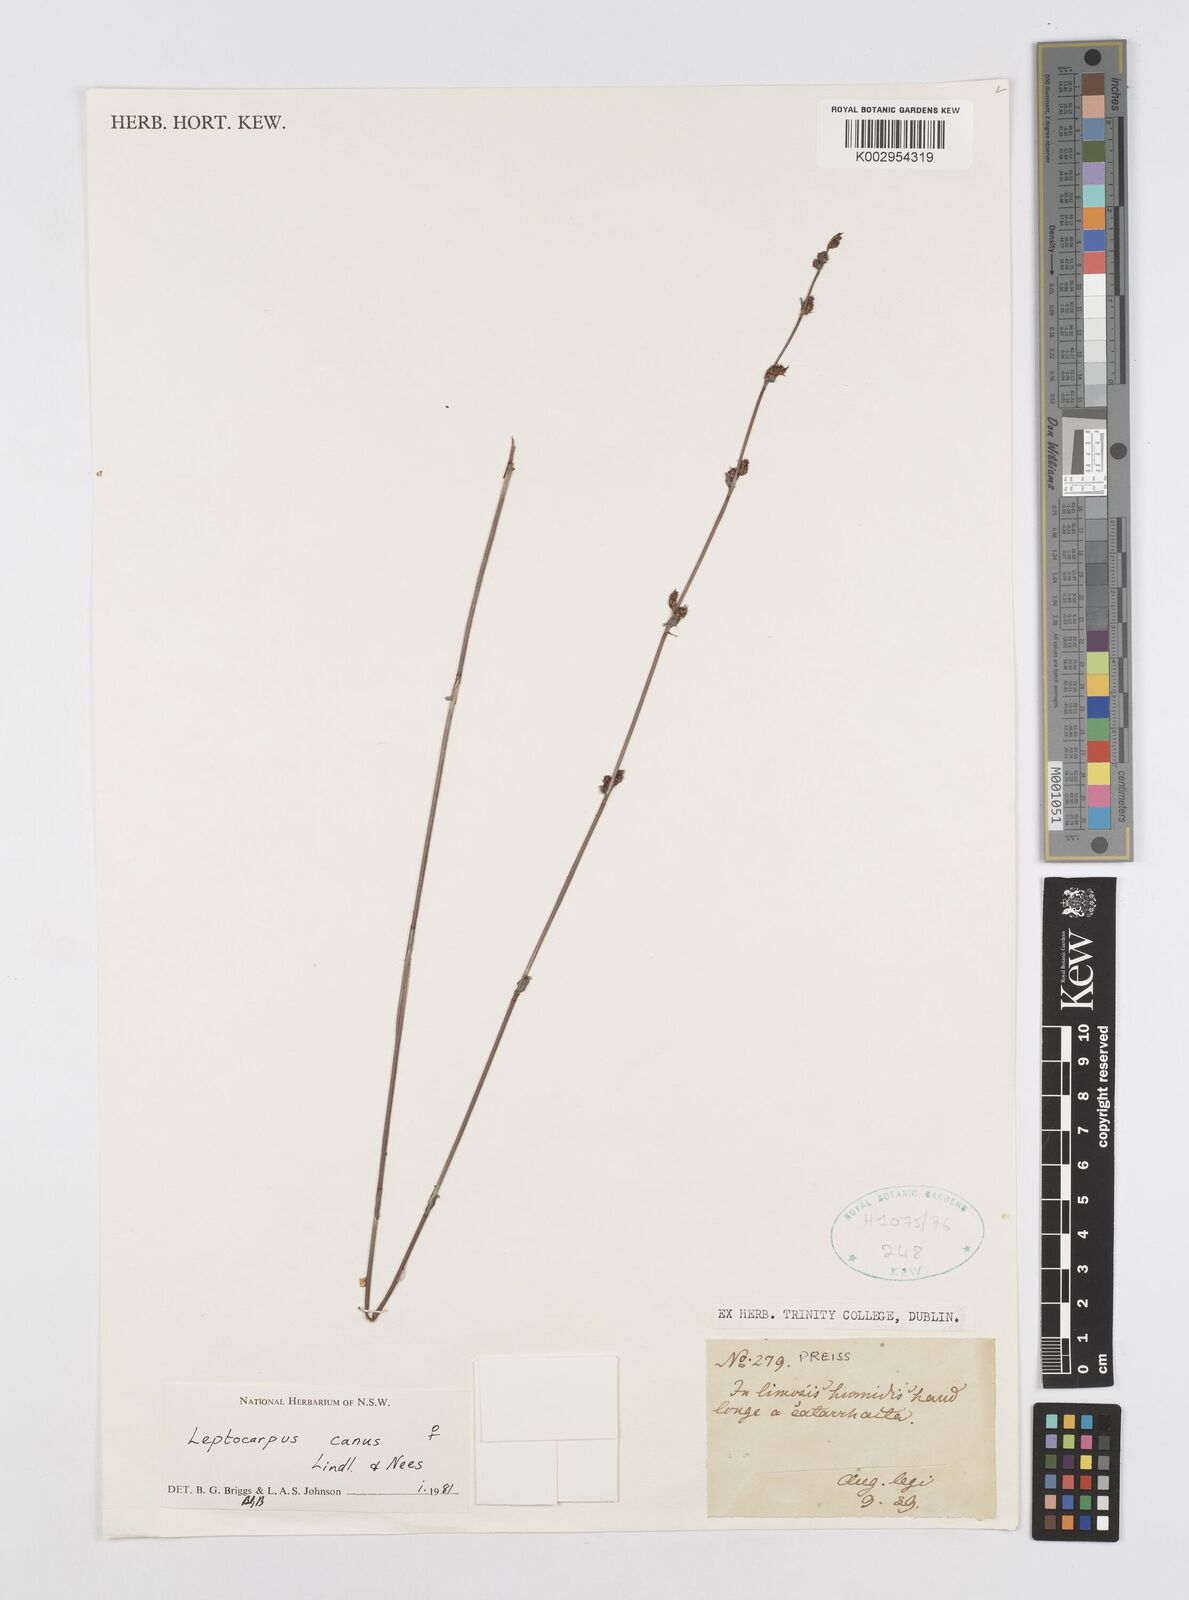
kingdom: Plantae
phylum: Tracheophyta
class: Liliopsida
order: Poales
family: Restionaceae
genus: Leptocarpus
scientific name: Leptocarpus canus
